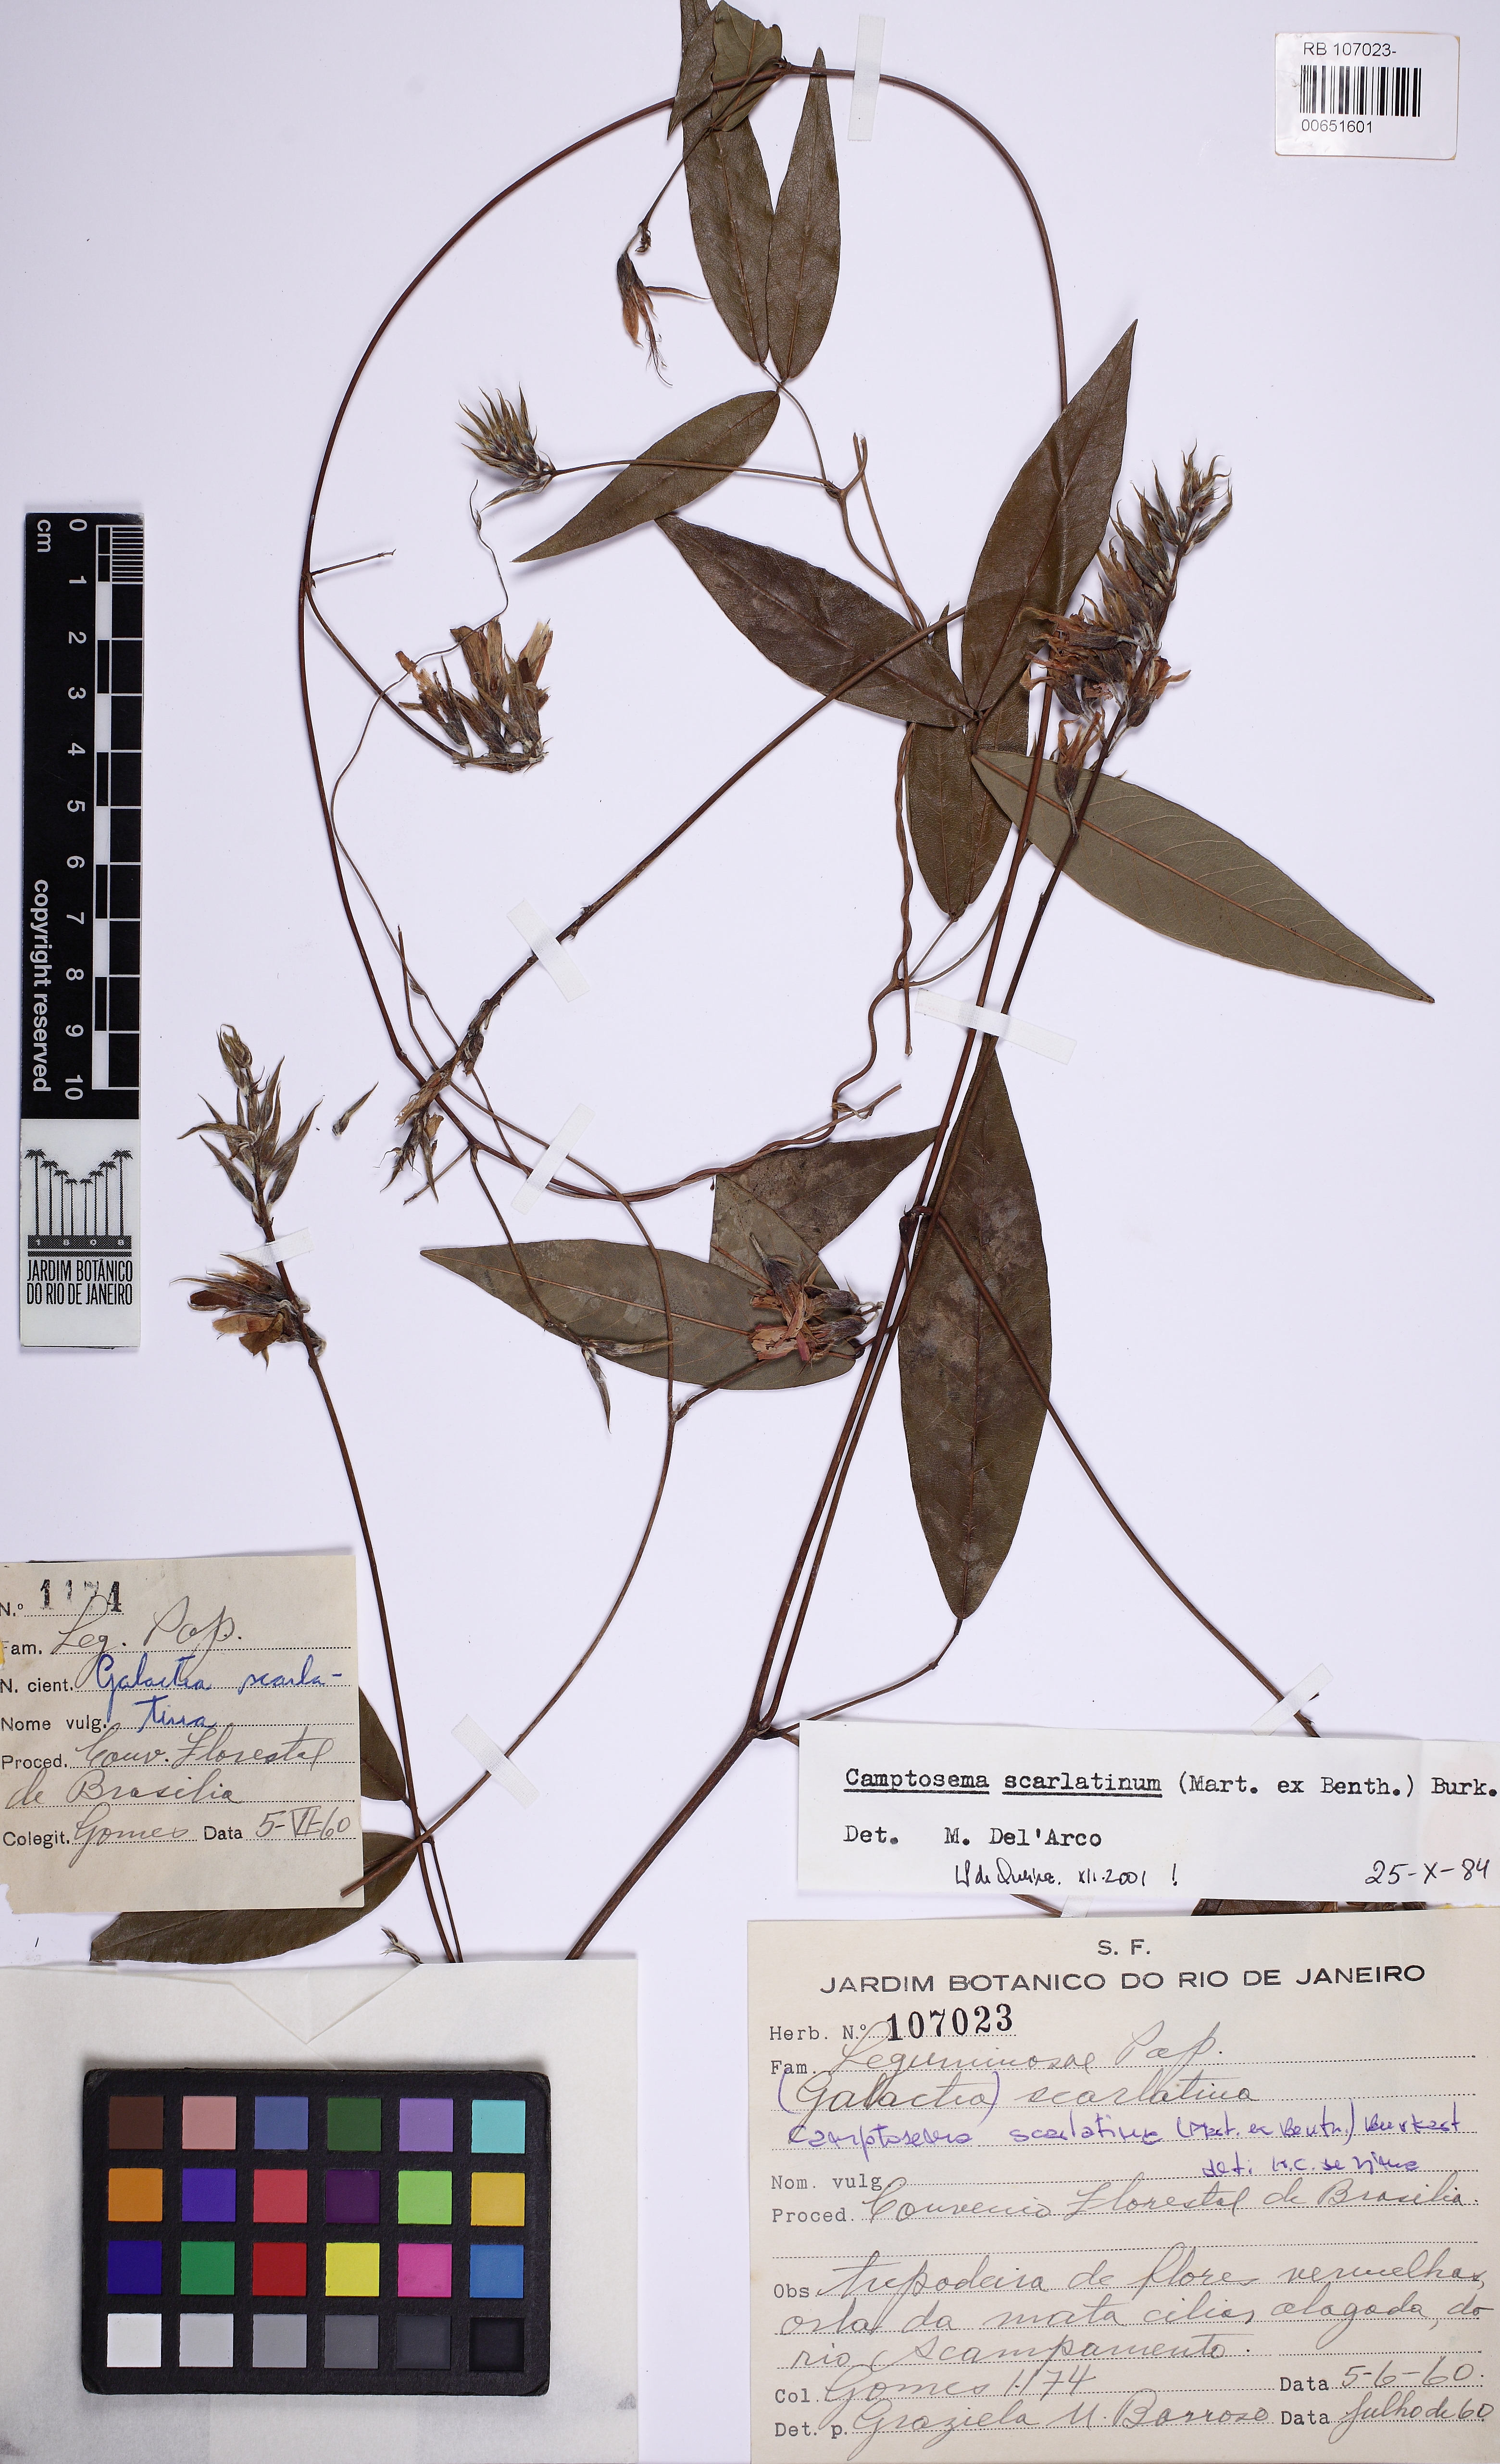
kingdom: Plantae
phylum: Tracheophyta
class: Magnoliopsida
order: Fabales
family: Fabaceae
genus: Betencourtia
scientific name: Betencourtia scarlatina
